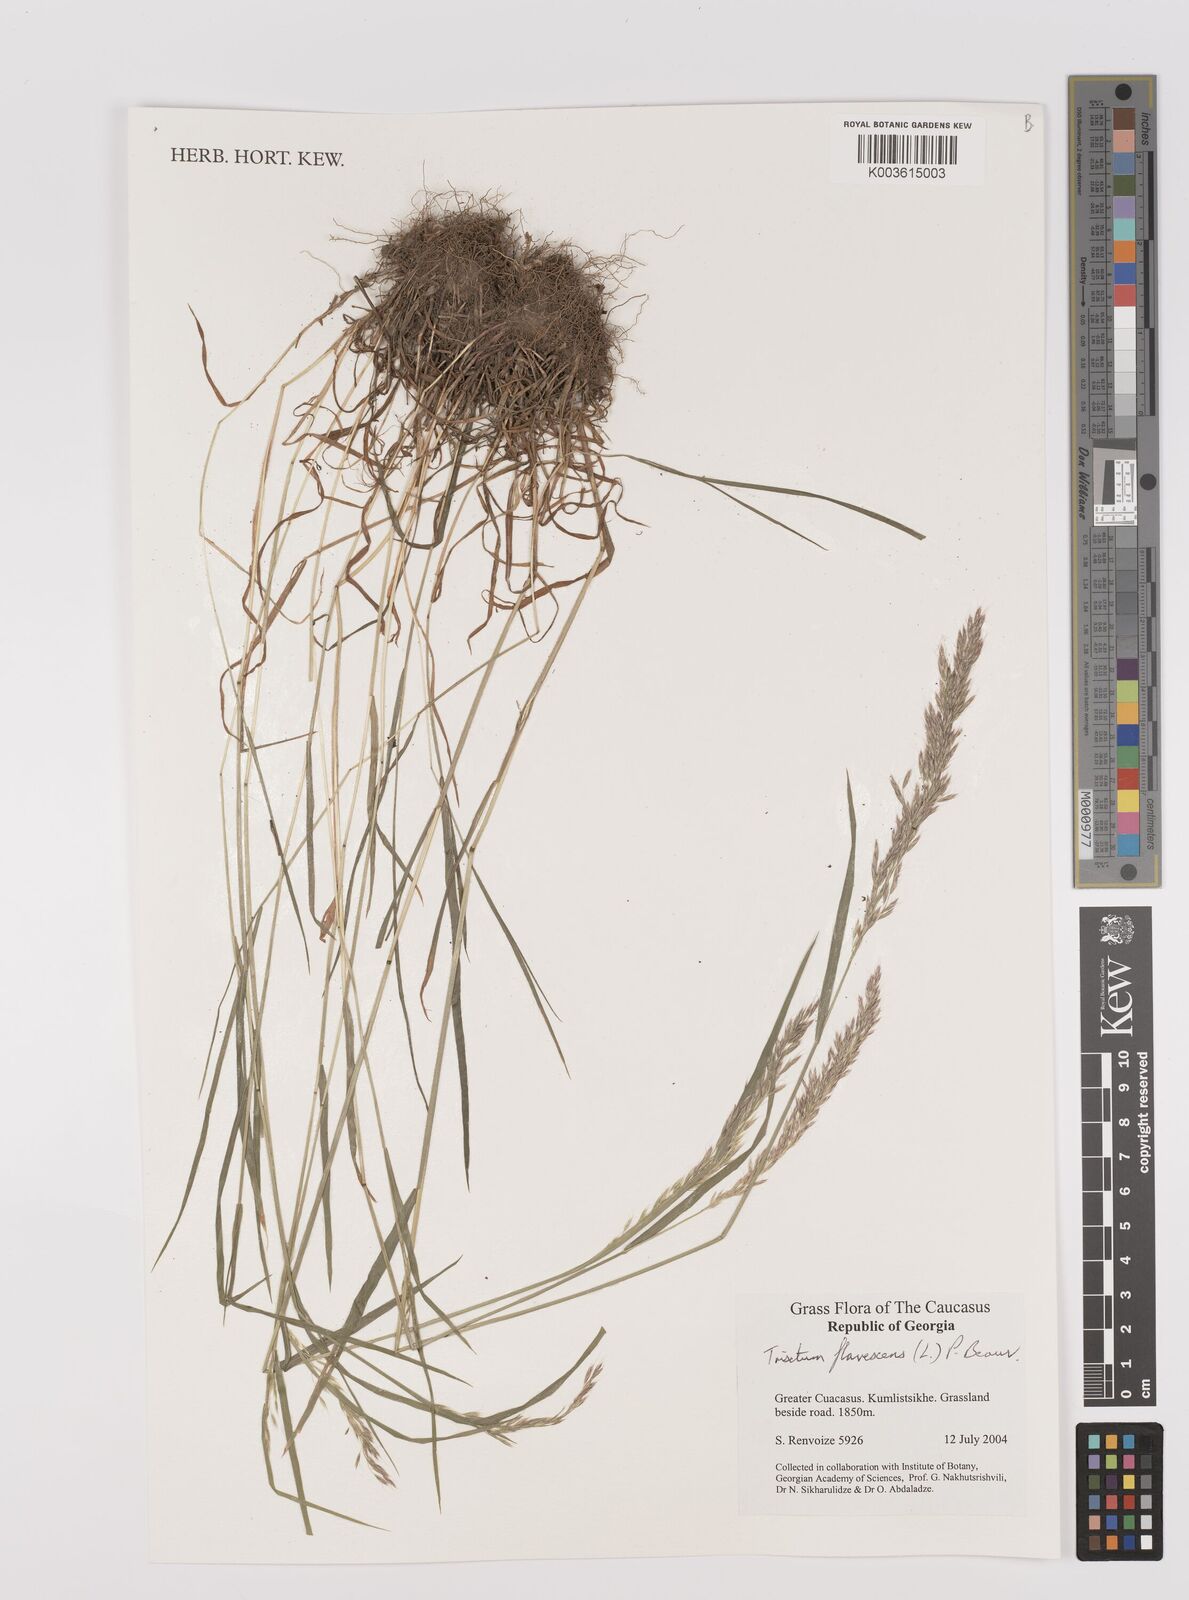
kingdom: Plantae
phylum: Tracheophyta
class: Liliopsida
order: Poales
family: Poaceae
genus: Trisetum
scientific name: Trisetum flavescens
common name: Yellow oat-grass
